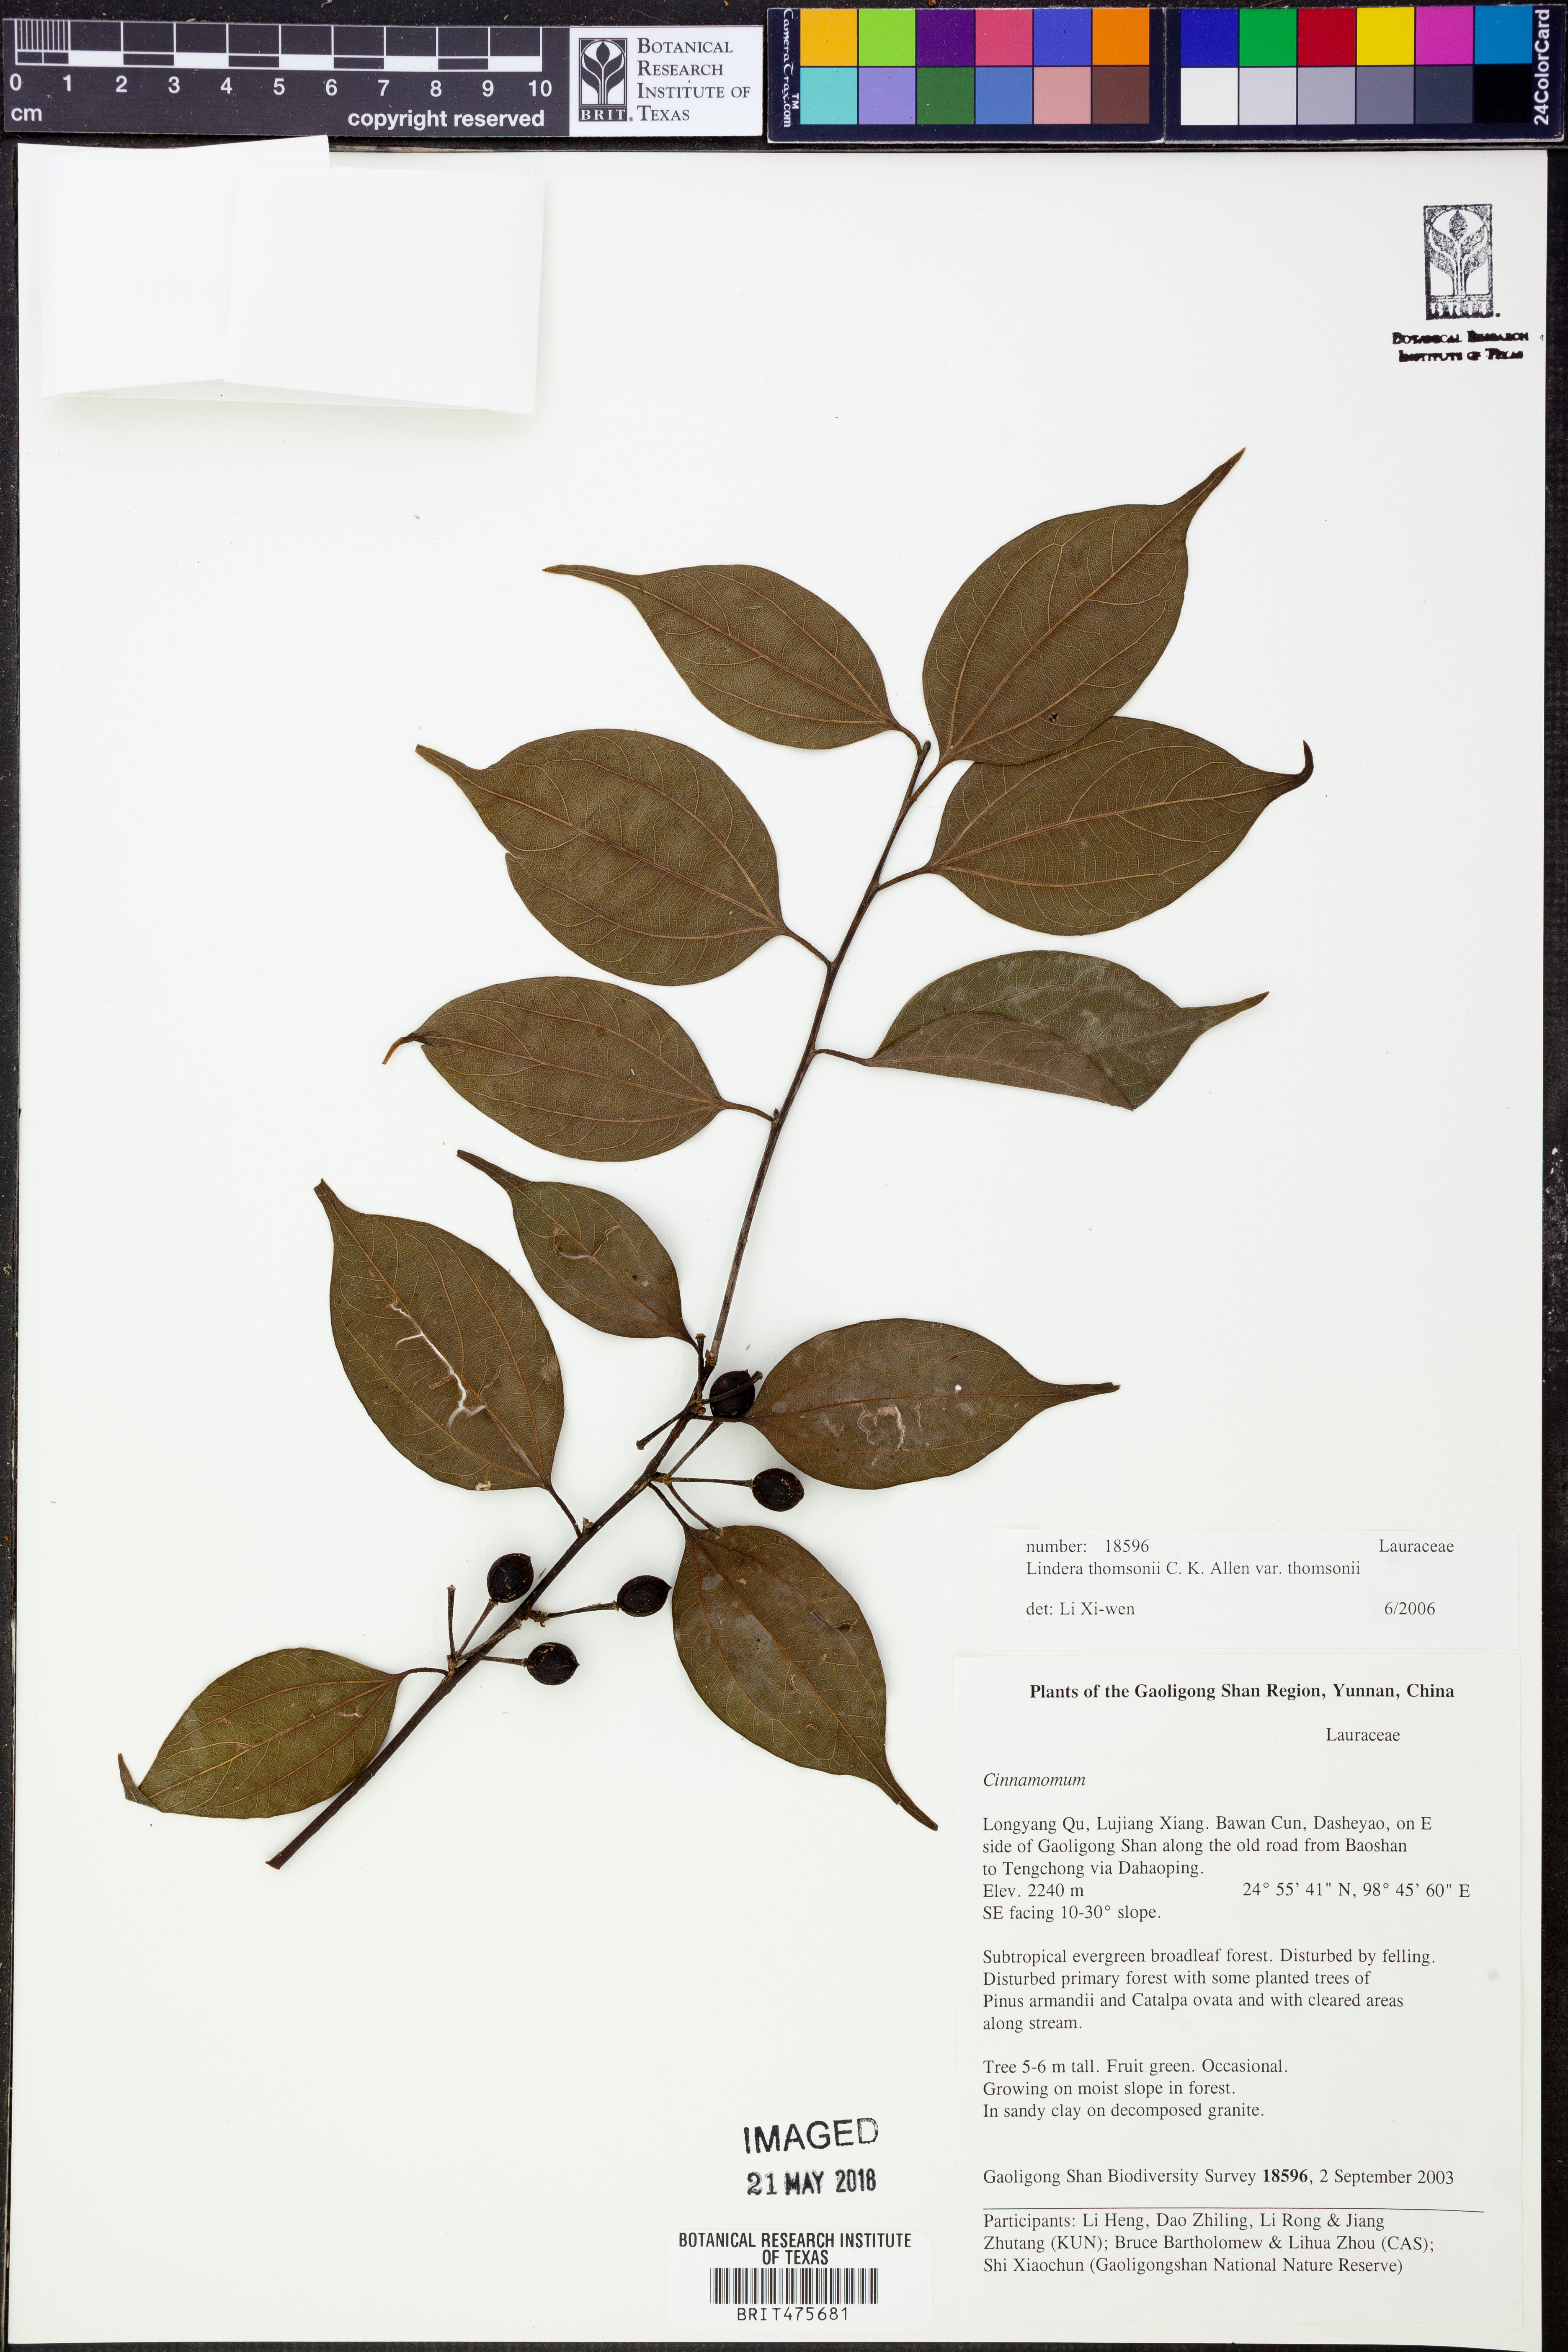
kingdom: Plantae
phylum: Tracheophyta
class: Magnoliopsida
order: Laurales
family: Lauraceae
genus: Lindera
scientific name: Lindera thomsonii
